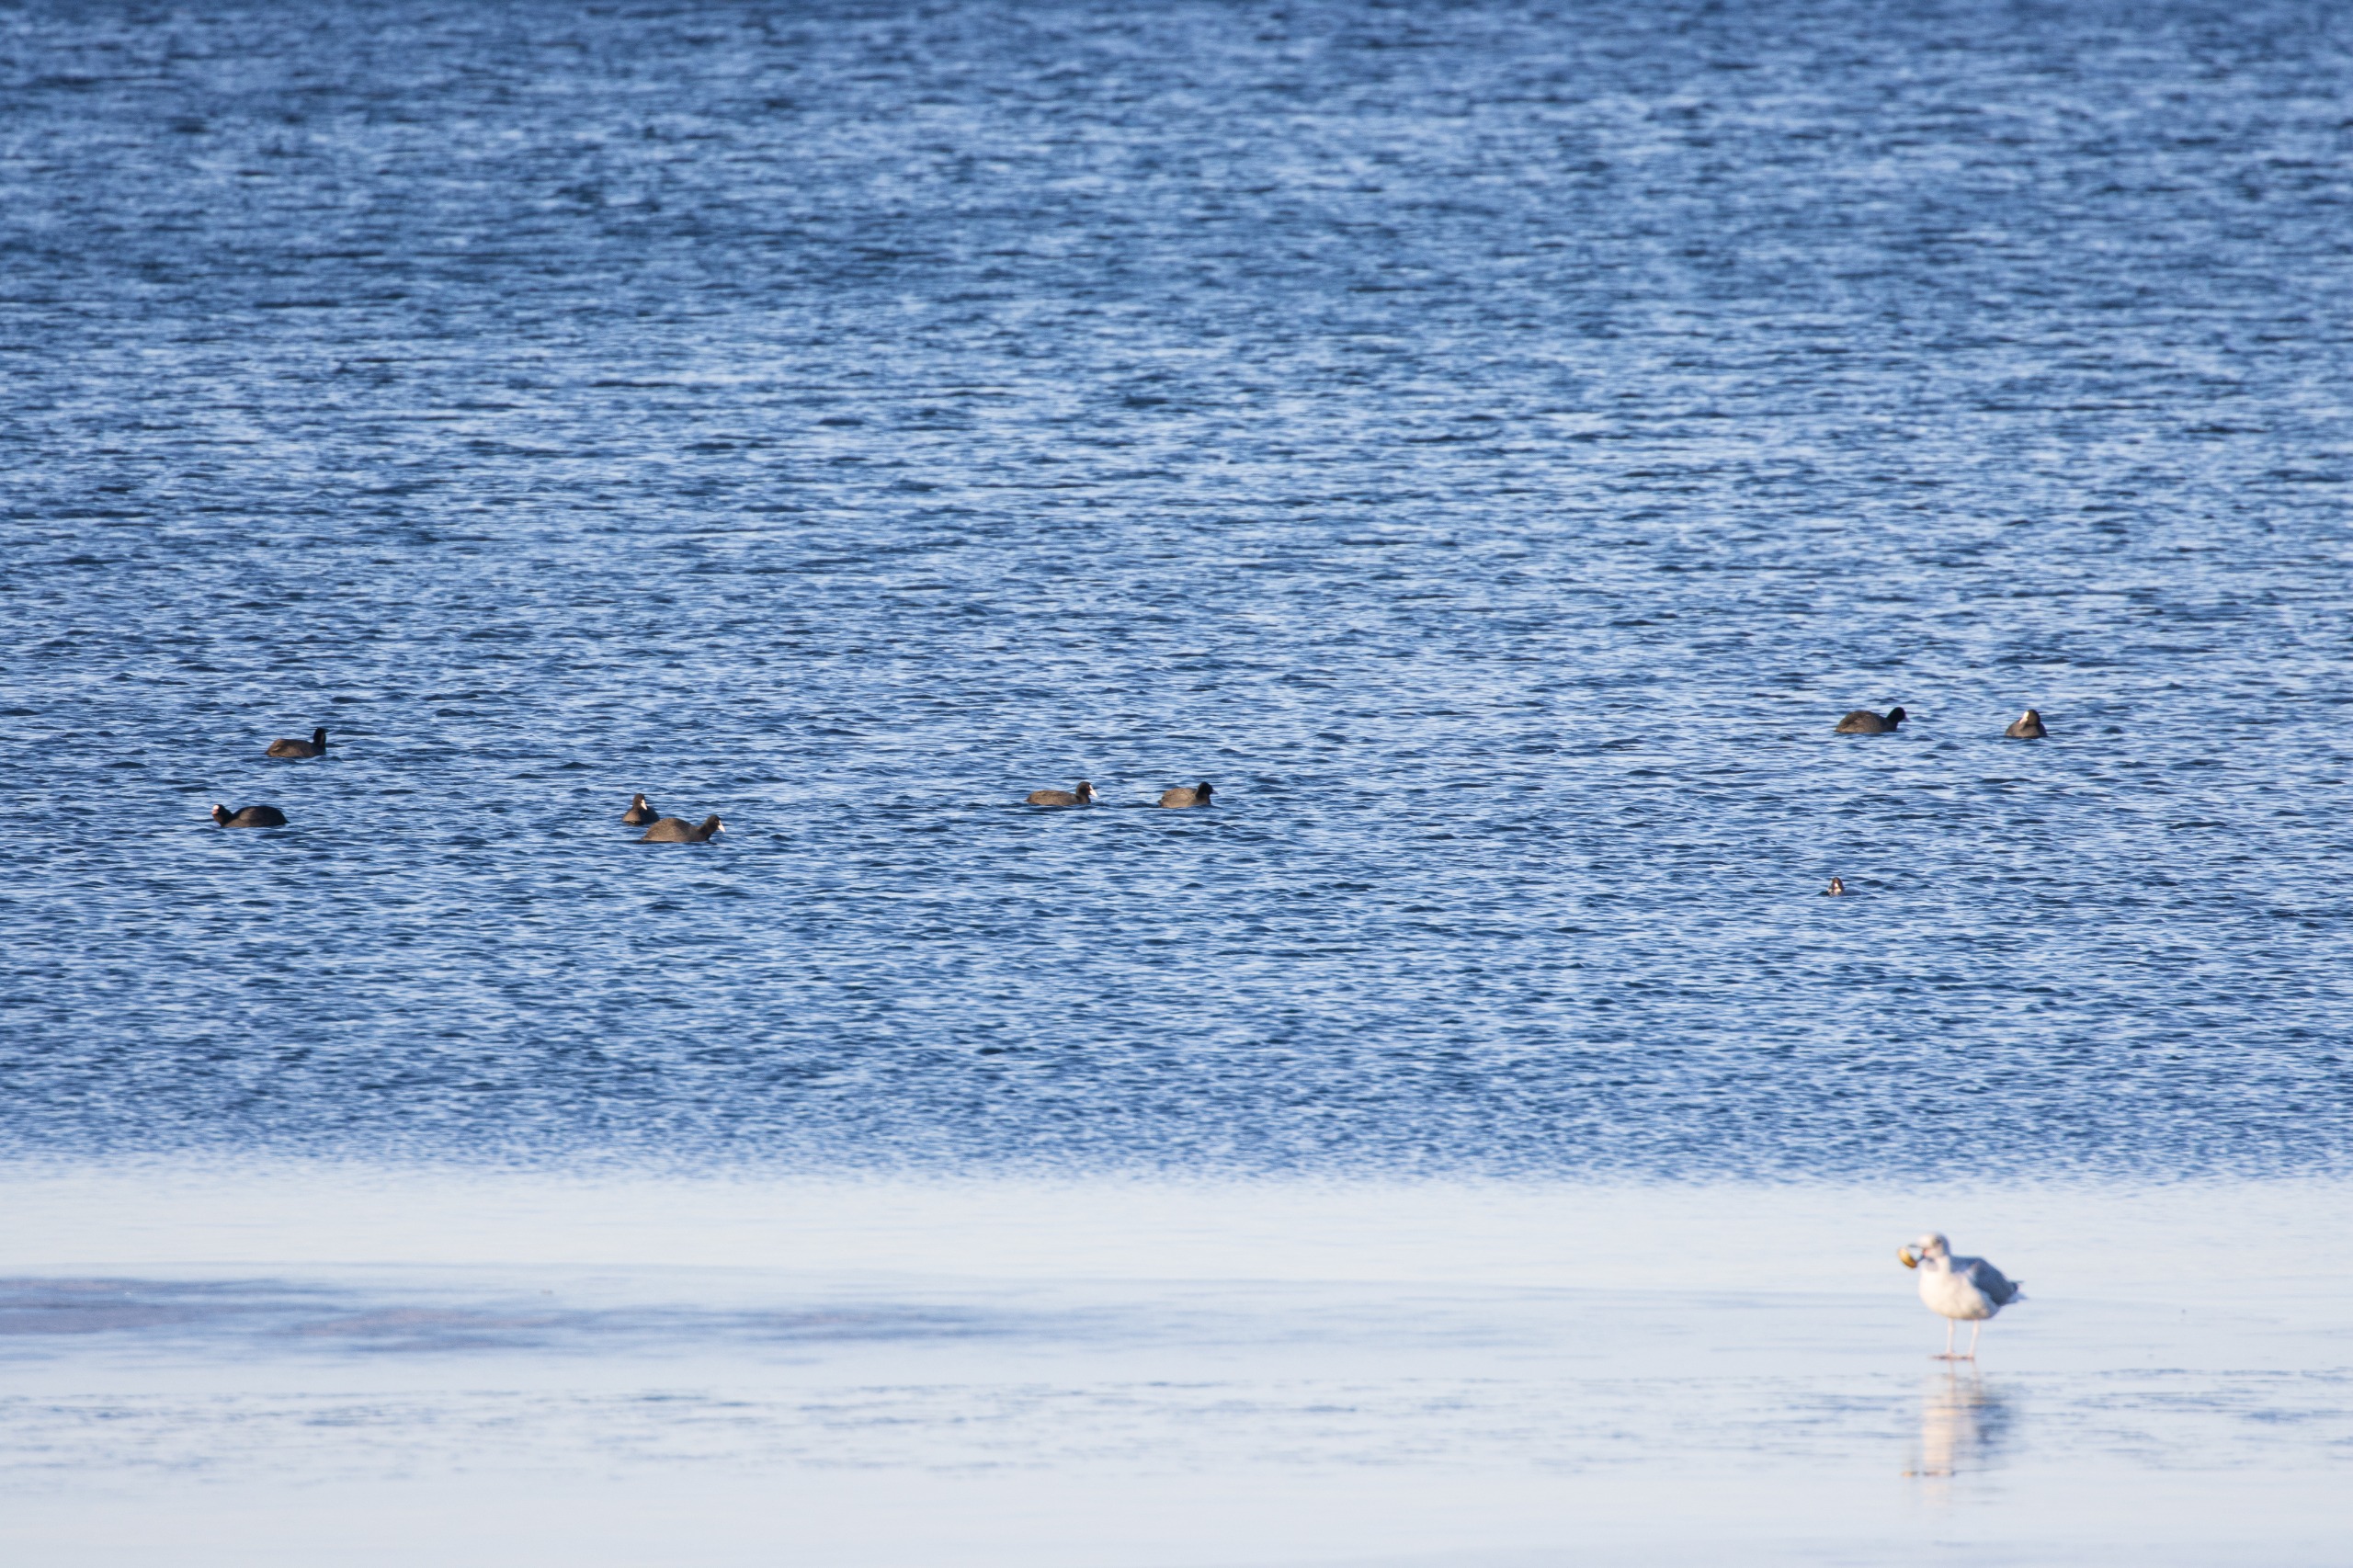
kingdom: Animalia
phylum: Chordata
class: Aves
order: Gruiformes
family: Rallidae
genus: Fulica
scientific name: Fulica atra
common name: Blishøne
